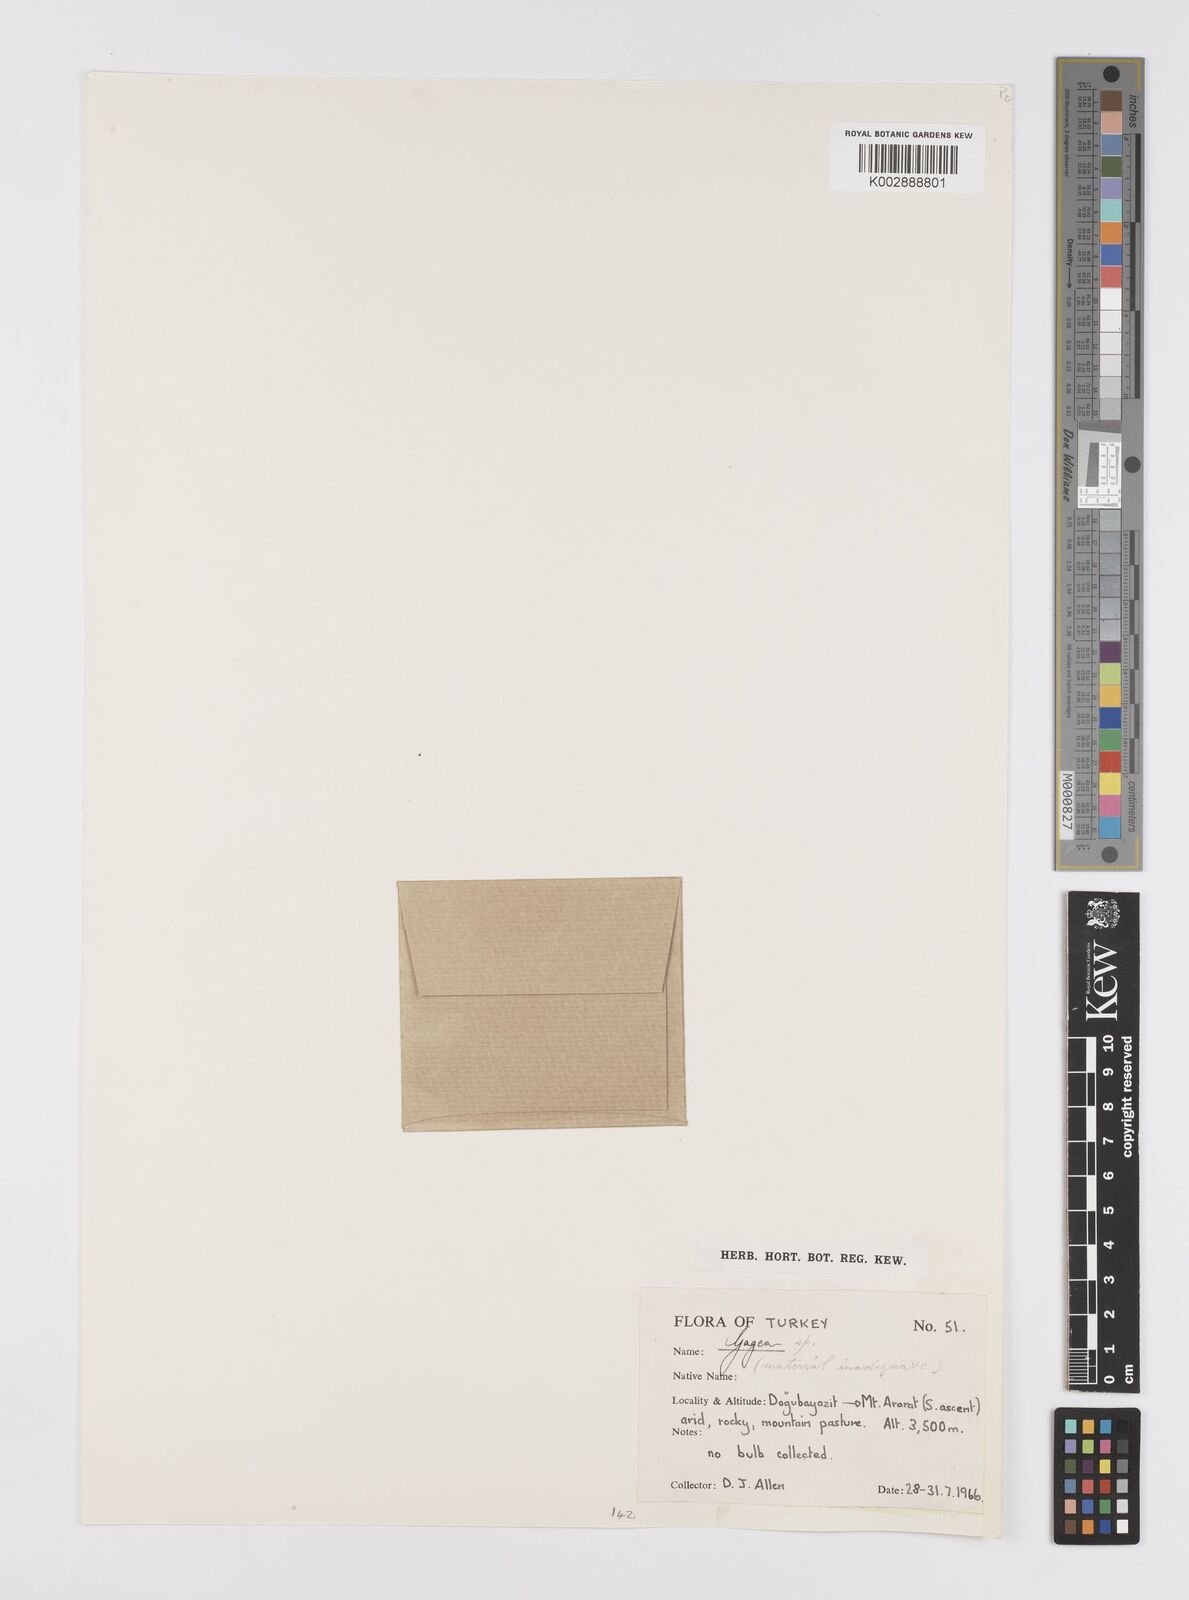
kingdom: Plantae
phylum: Tracheophyta
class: Liliopsida
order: Liliales
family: Liliaceae
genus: Gagea
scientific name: Gagea
